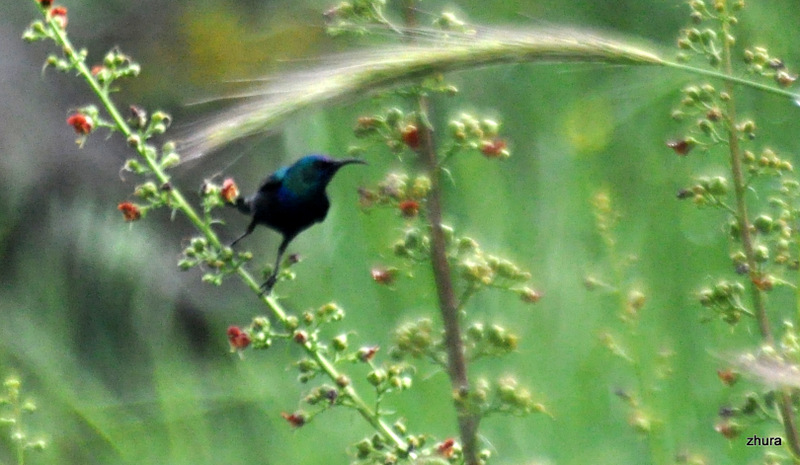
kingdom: Animalia
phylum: Chordata
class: Aves
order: Passeriformes
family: Nectariniidae
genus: Cinnyris
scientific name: Cinnyris osea
